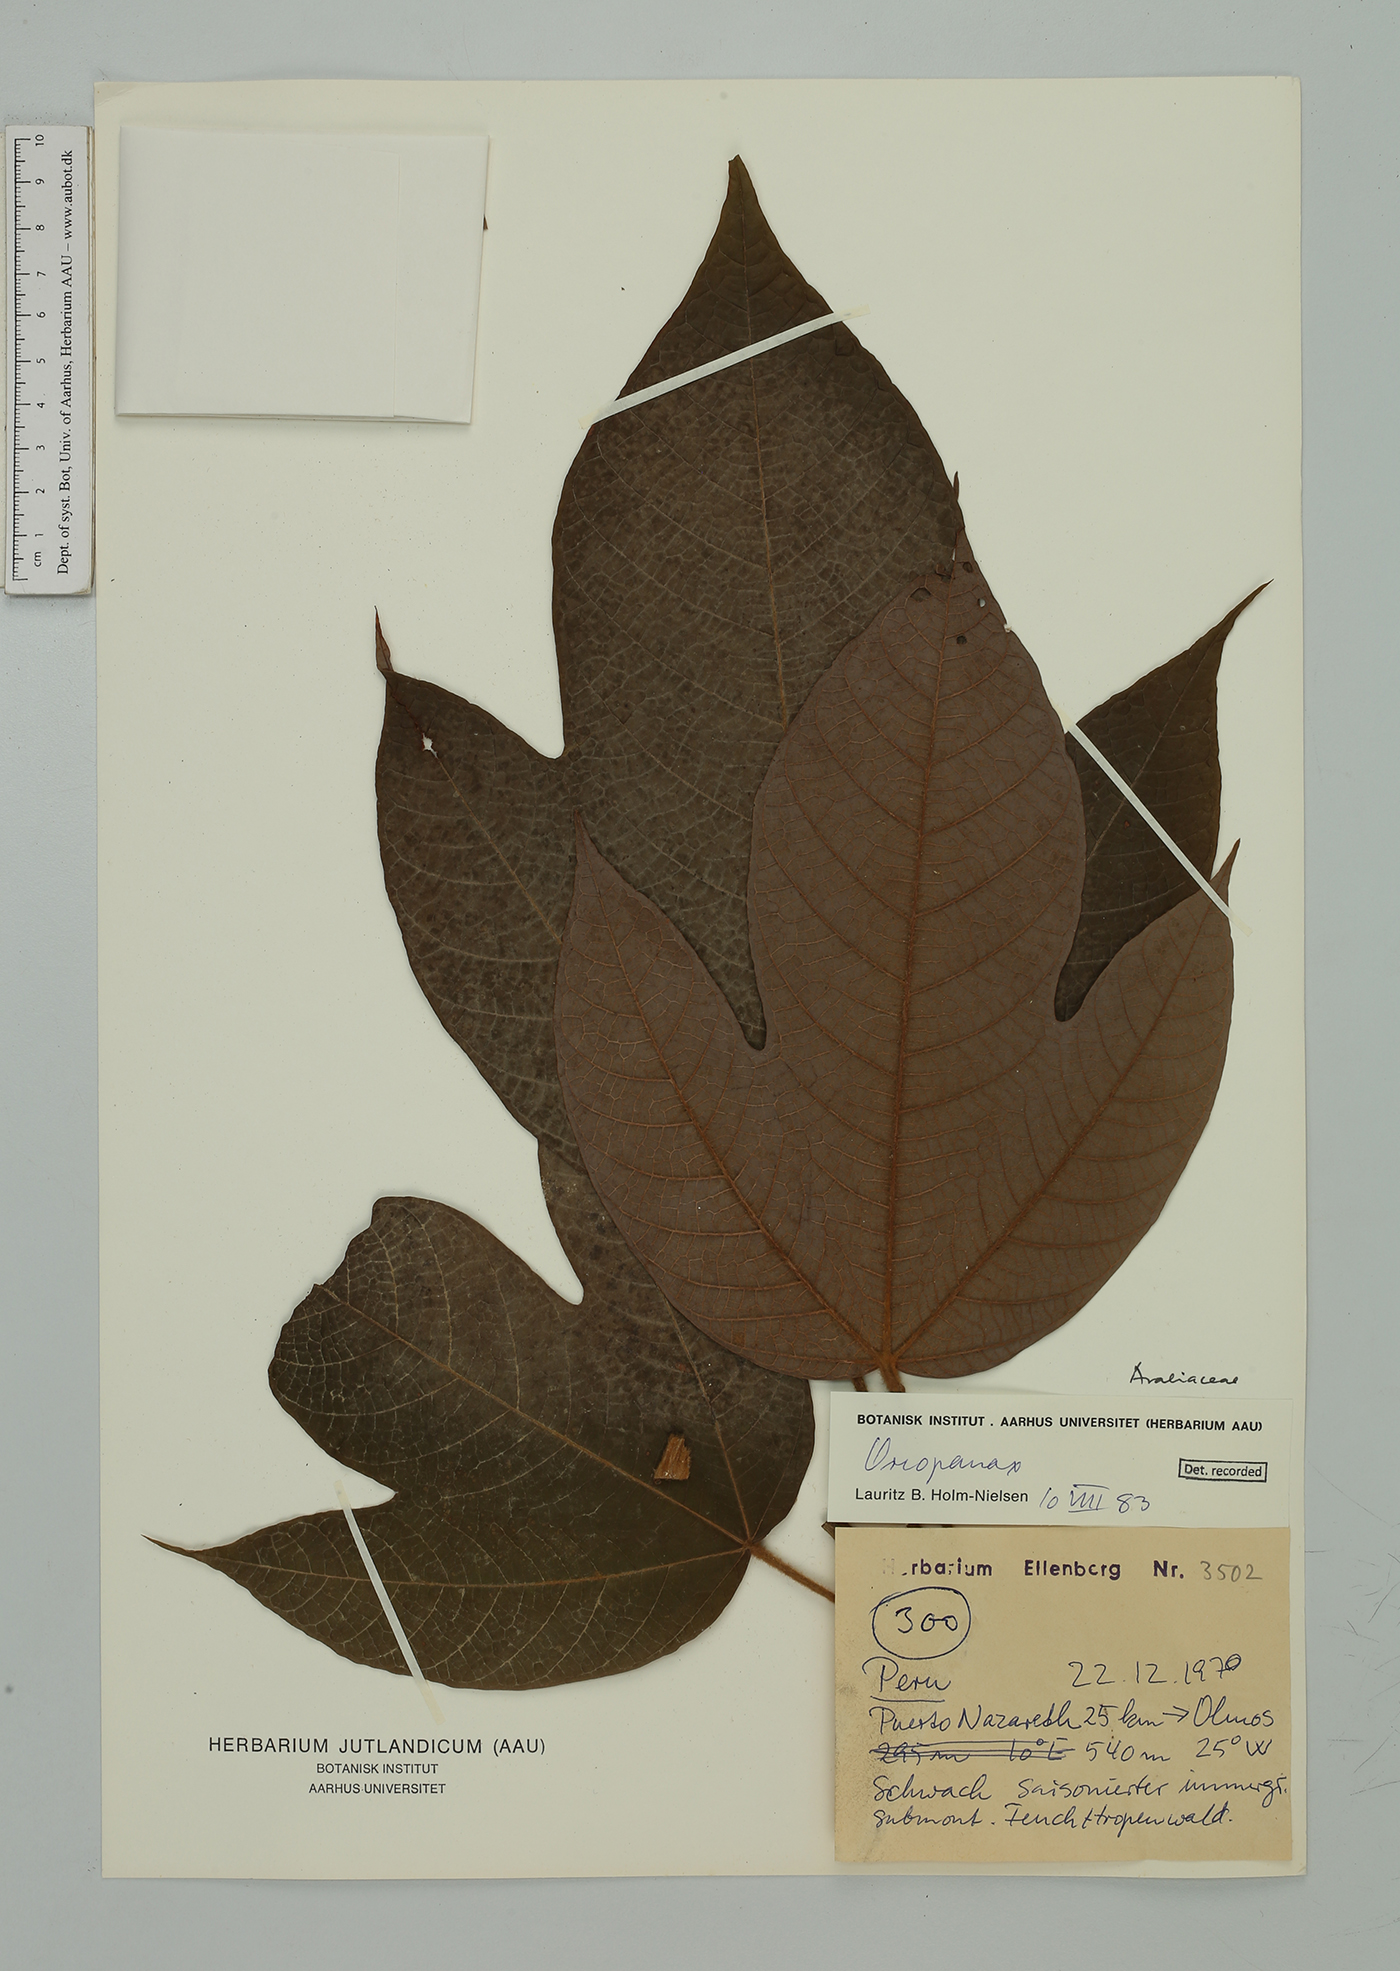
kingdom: Plantae
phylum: Tracheophyta
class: Magnoliopsida
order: Apiales
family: Araliaceae
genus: Oreopanax
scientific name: Oreopanax
